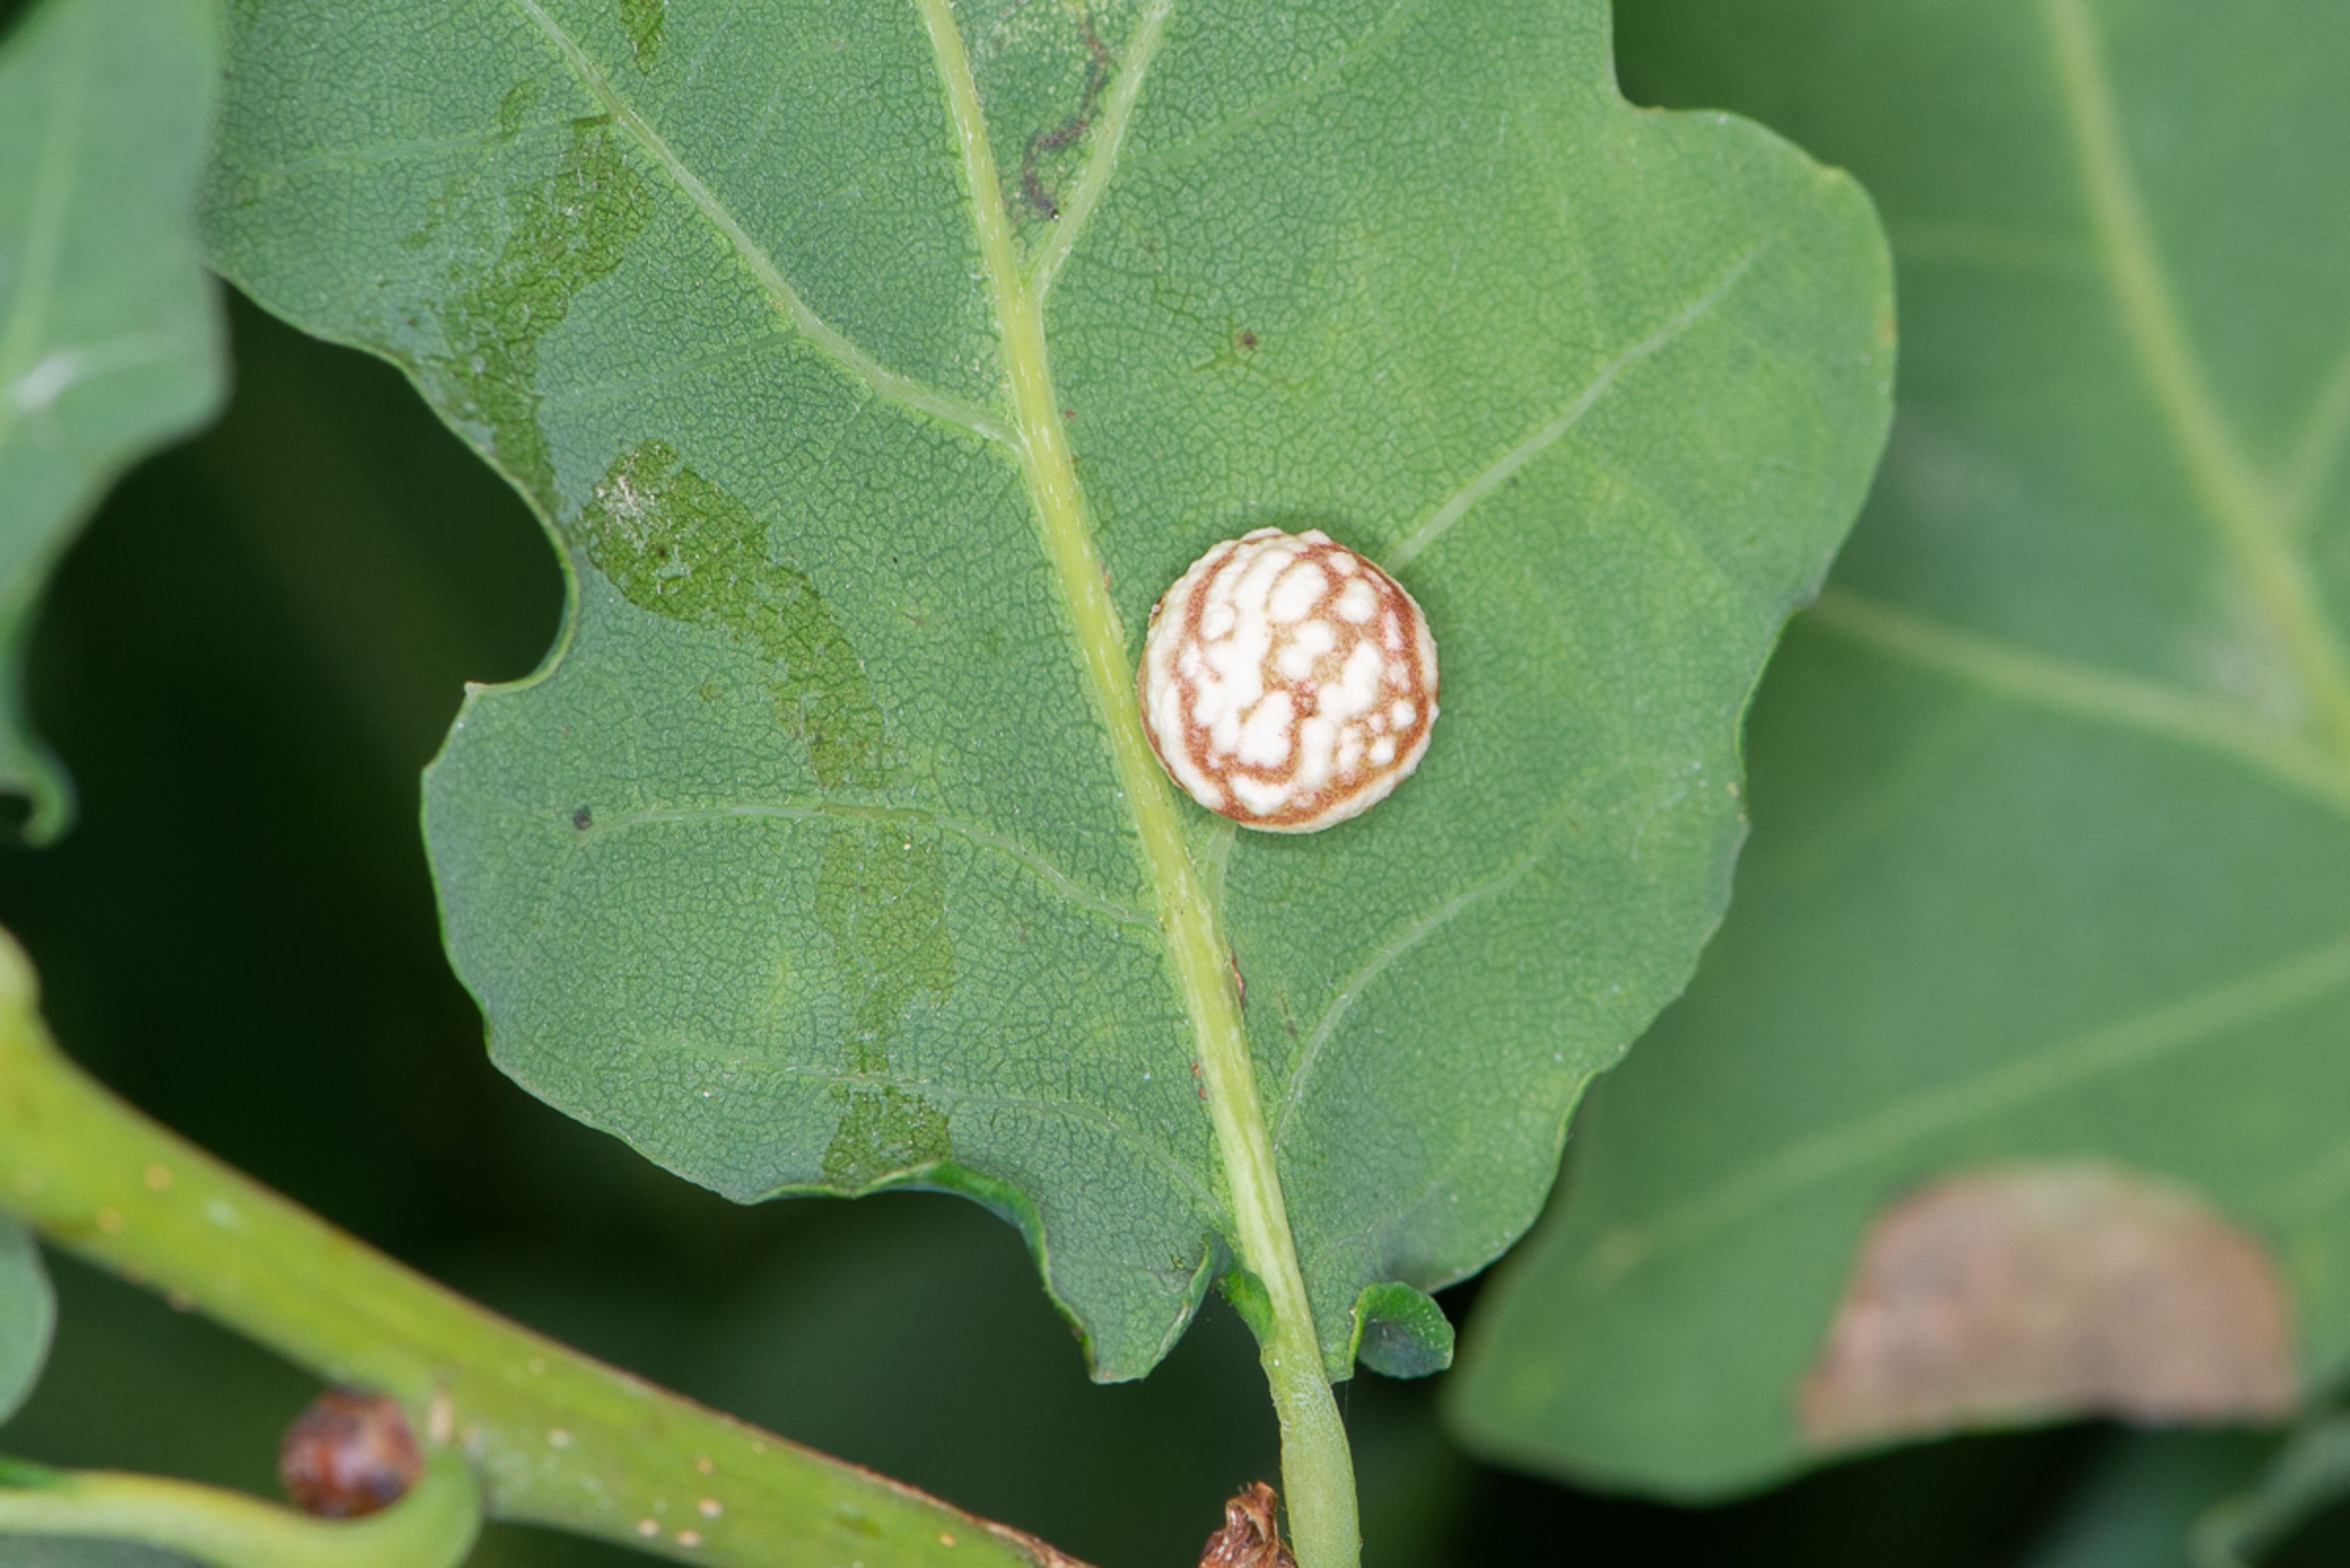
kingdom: Animalia
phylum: Arthropoda
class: Insecta
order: Hymenoptera
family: Cynipidae
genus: Cynips
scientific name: Cynips longiventris
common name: Dannebrogsgalhveps
